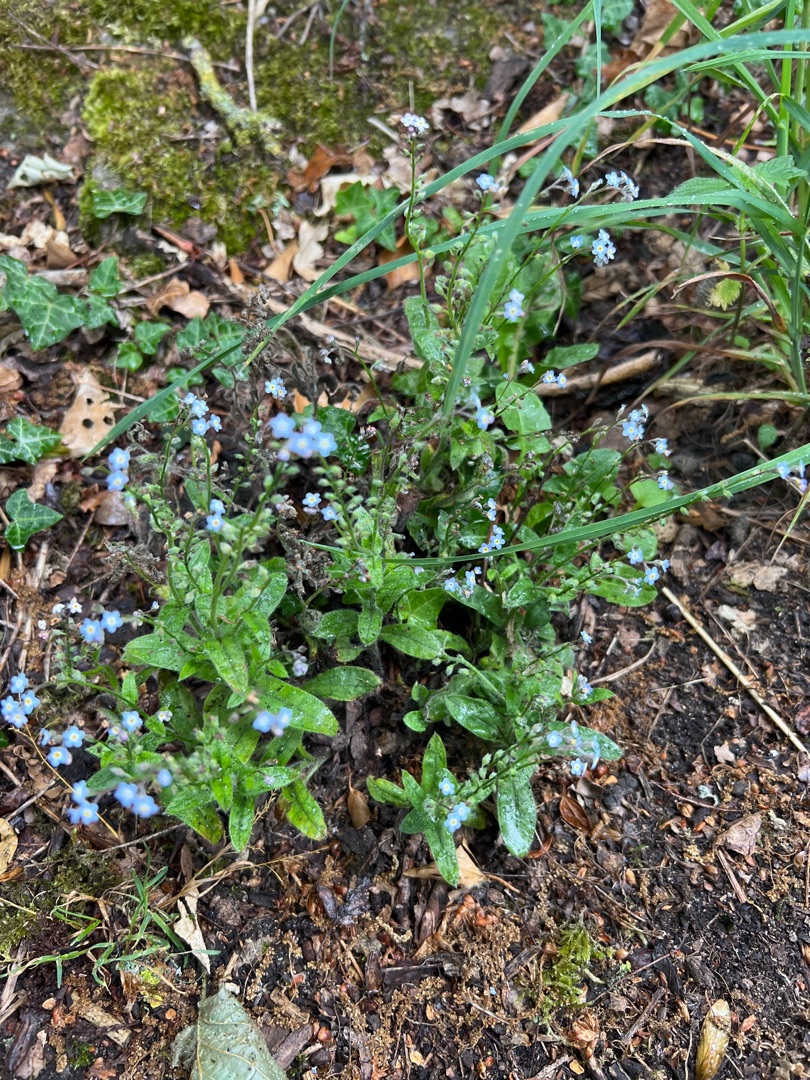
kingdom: Plantae
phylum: Tracheophyta
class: Magnoliopsida
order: Boraginales
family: Boraginaceae
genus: Myosotis
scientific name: Myosotis sylvatica
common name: Skov-forglemmigej
